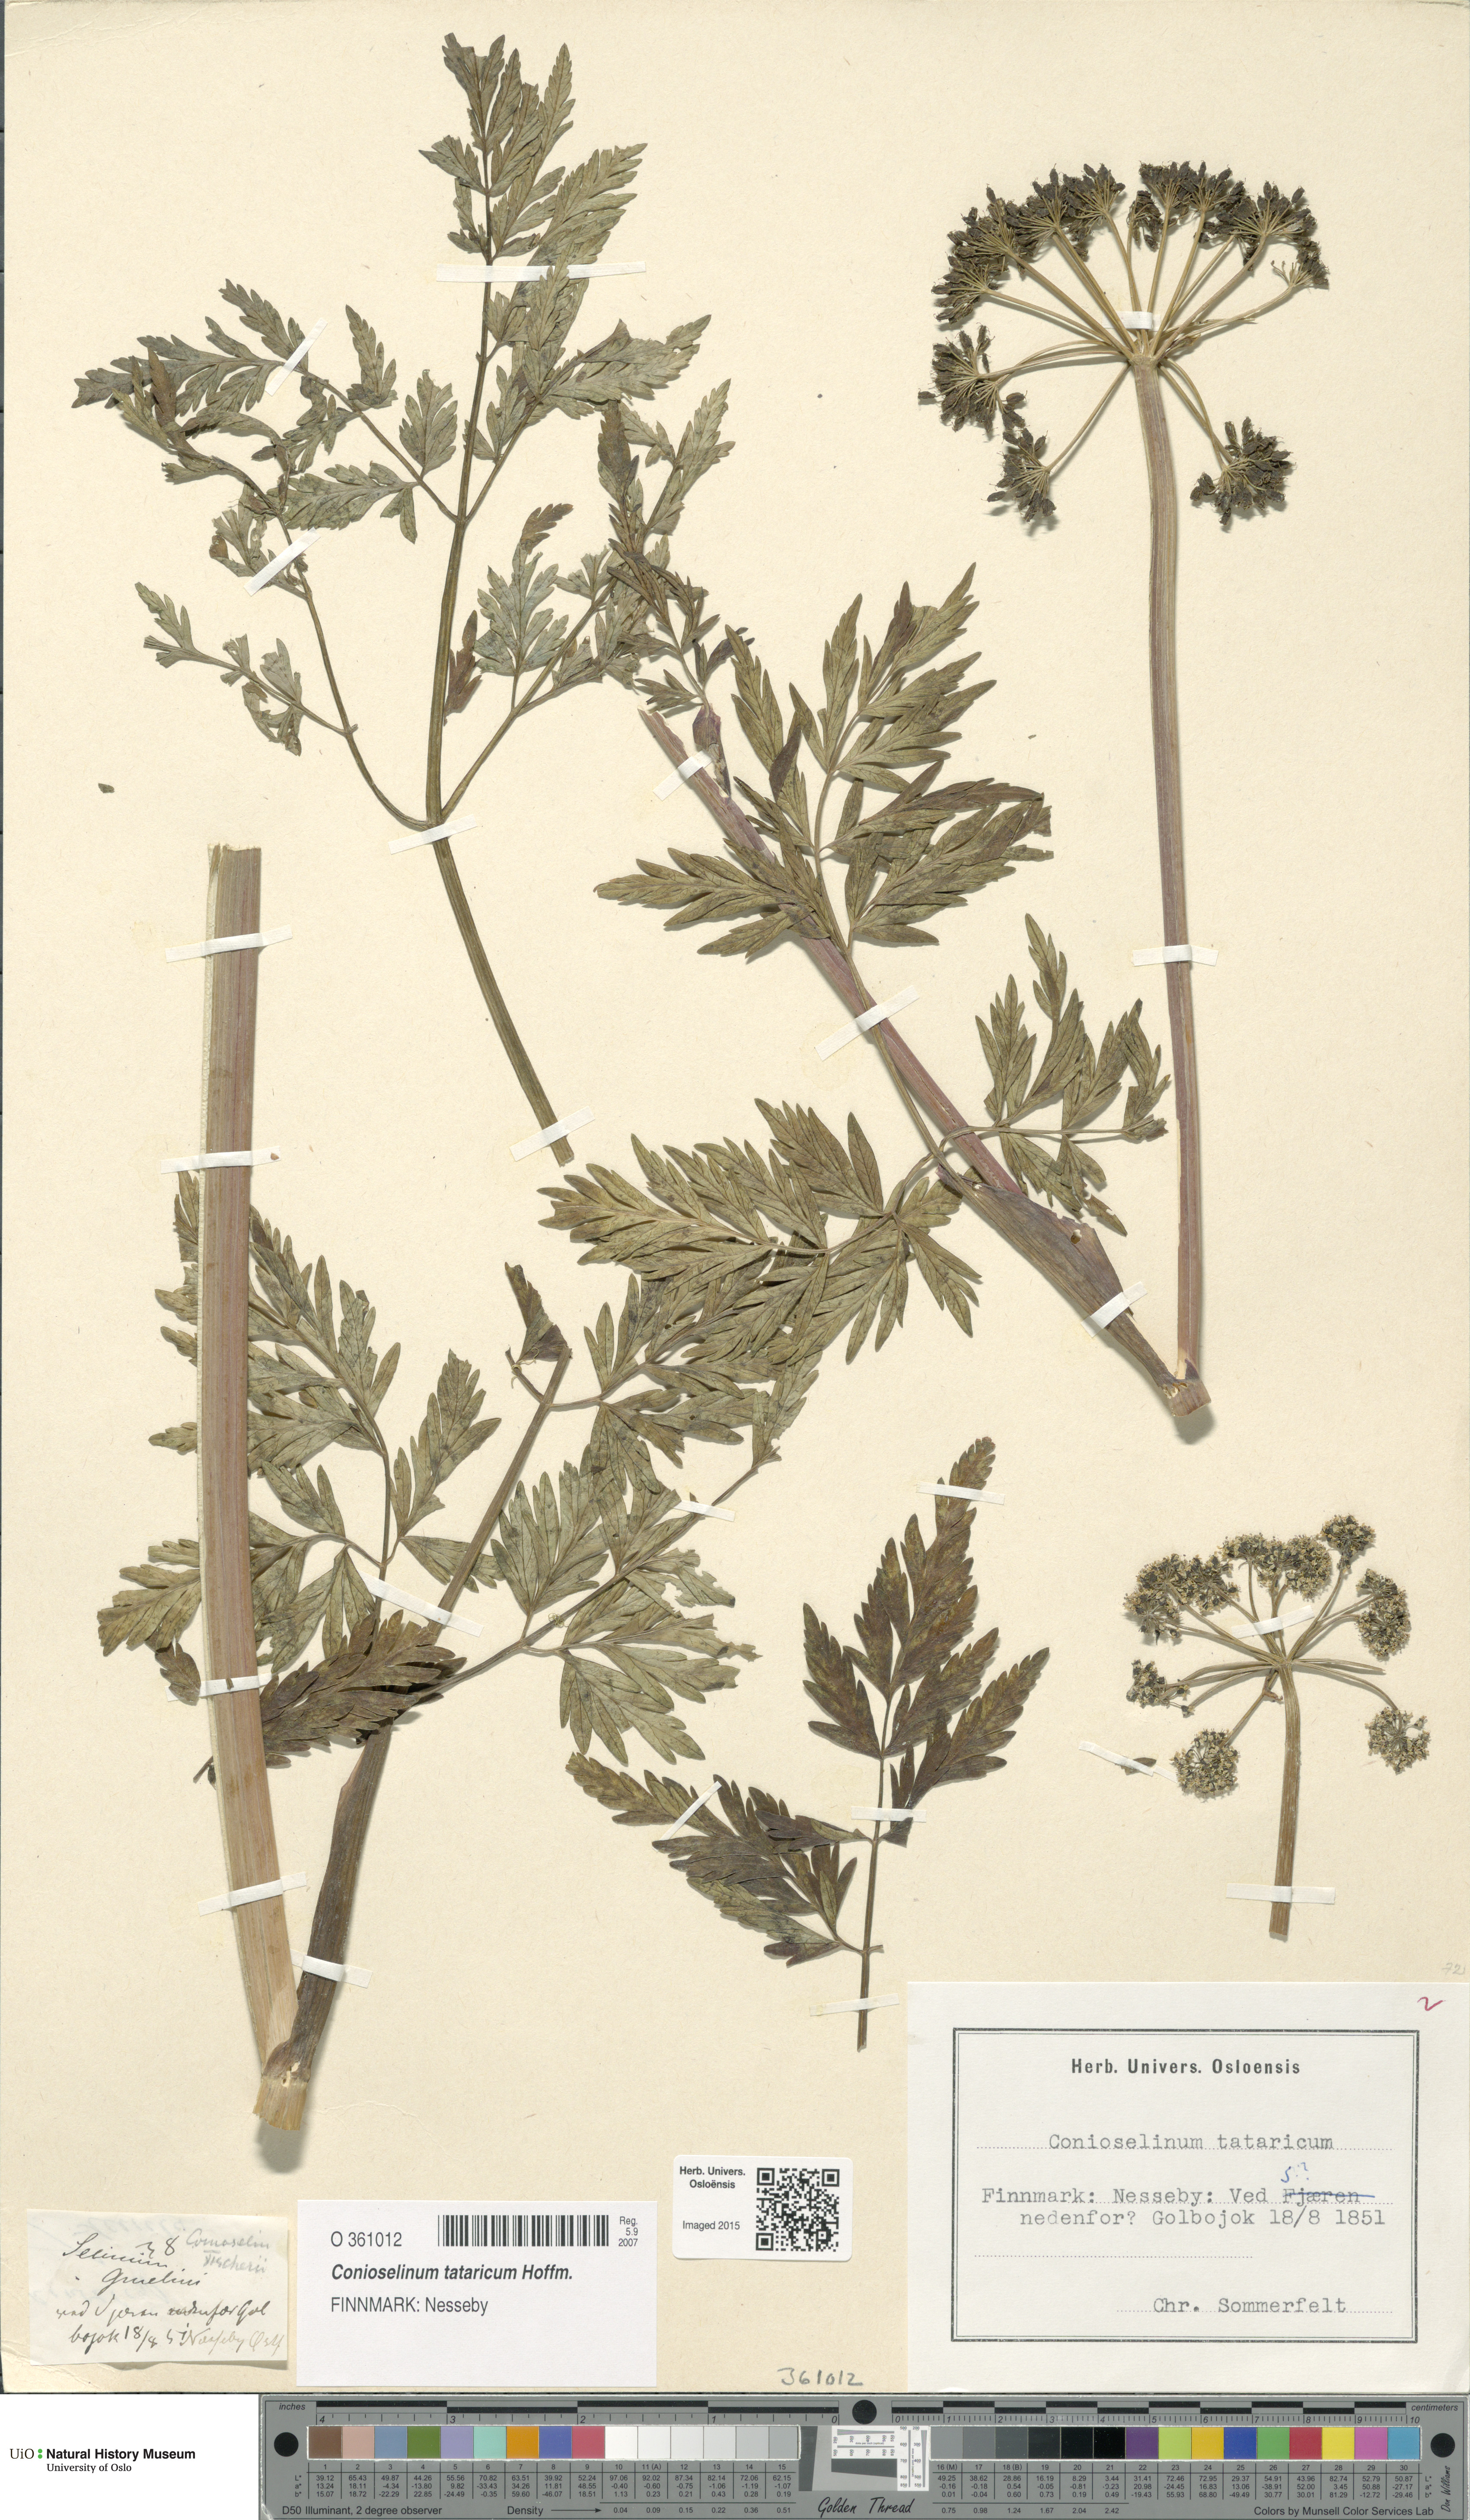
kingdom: Plantae
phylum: Tracheophyta
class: Magnoliopsida
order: Apiales
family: Apiaceae
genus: Seseli
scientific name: Seseli condensatum
